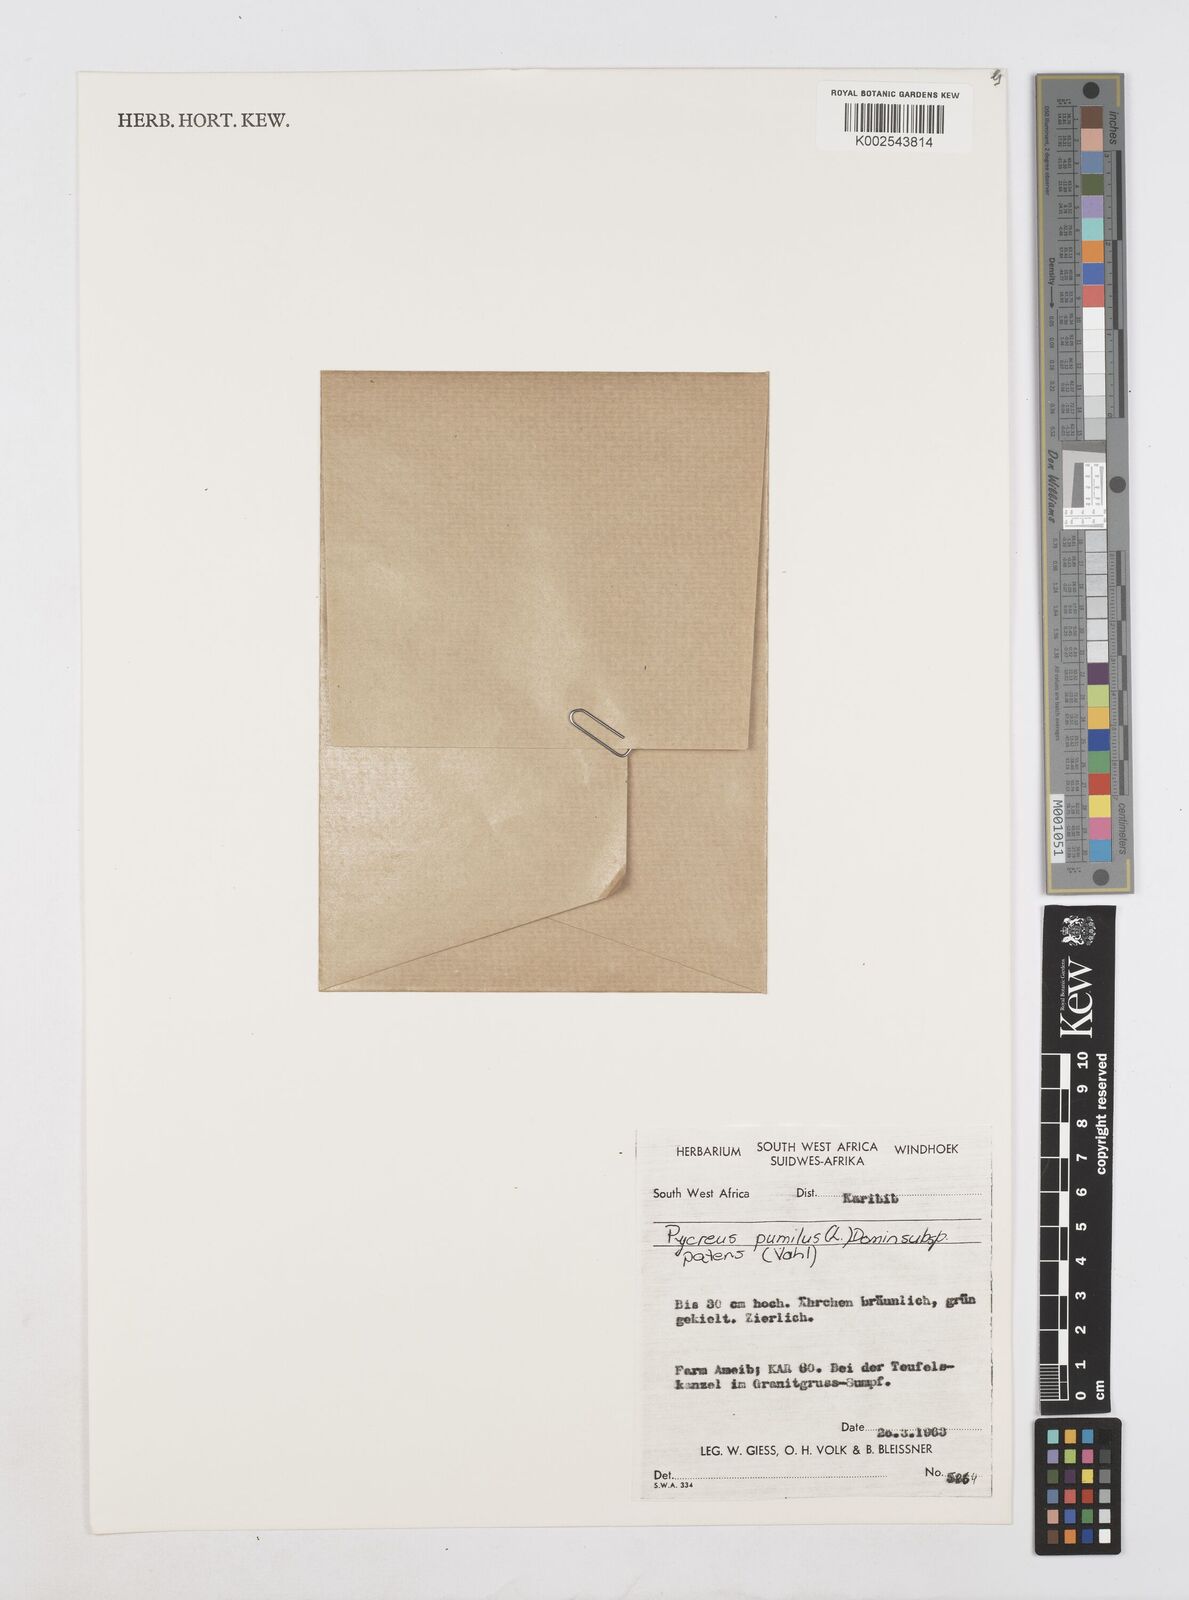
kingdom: Plantae
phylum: Tracheophyta
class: Liliopsida
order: Poales
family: Cyperaceae
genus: Cyperus
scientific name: Cyperus pumilus
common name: Low flatsedge
